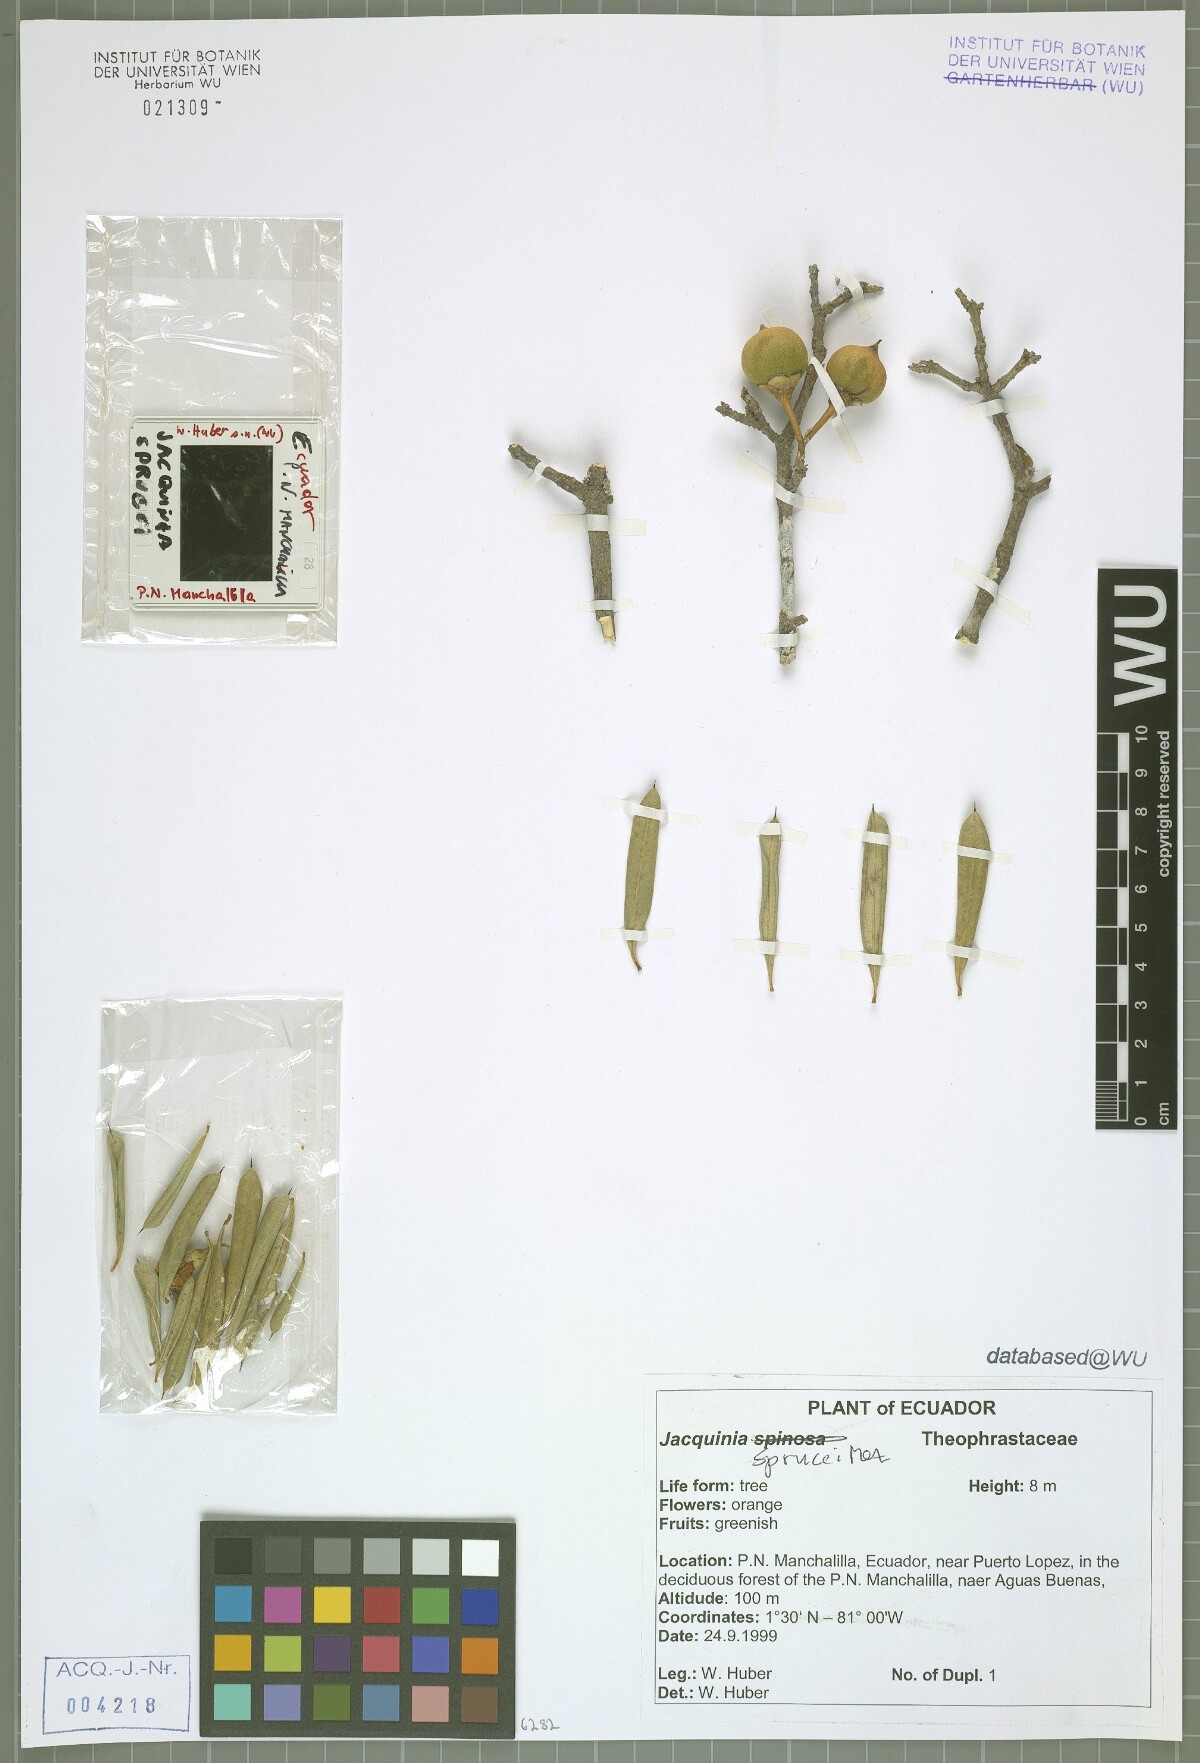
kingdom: Plantae
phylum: Tracheophyta
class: Magnoliopsida
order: Ericales
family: Primulaceae
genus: Bonellia
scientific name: Bonellia sprucei
